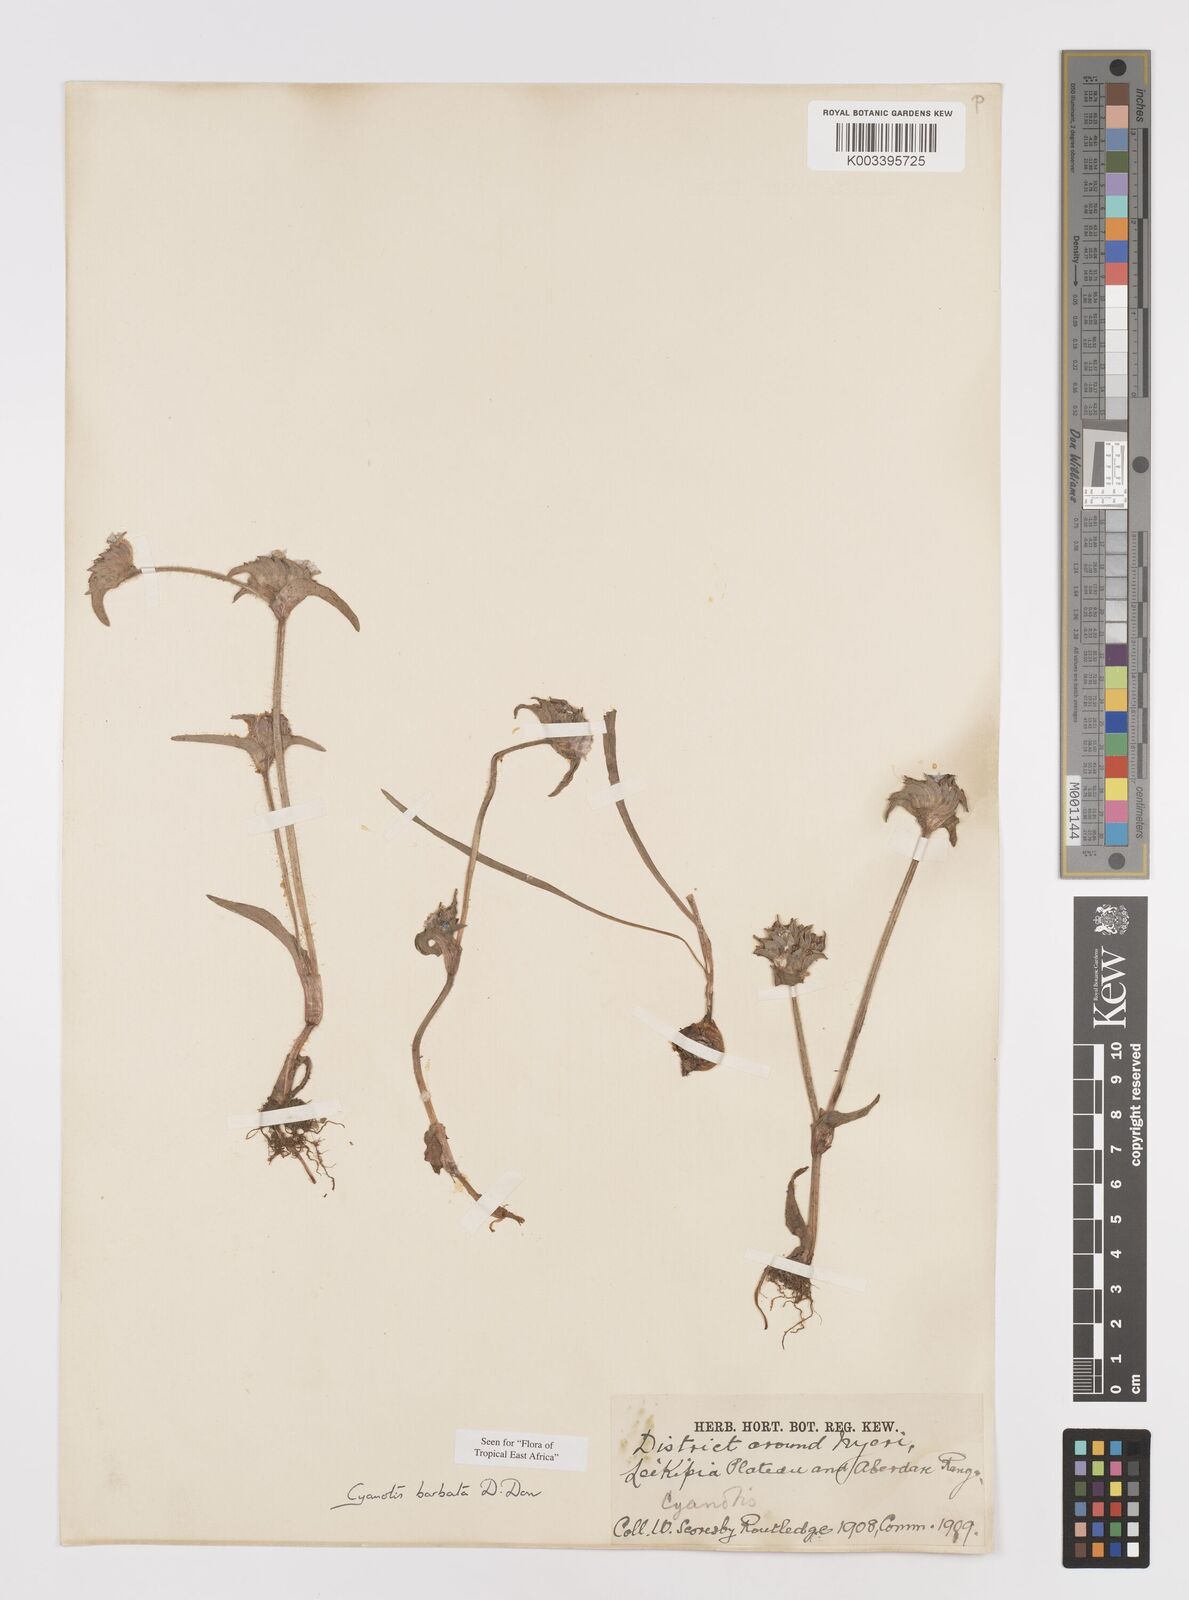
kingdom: Plantae
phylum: Tracheophyta
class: Liliopsida
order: Commelinales
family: Commelinaceae
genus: Cyanotis
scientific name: Cyanotis vaga
